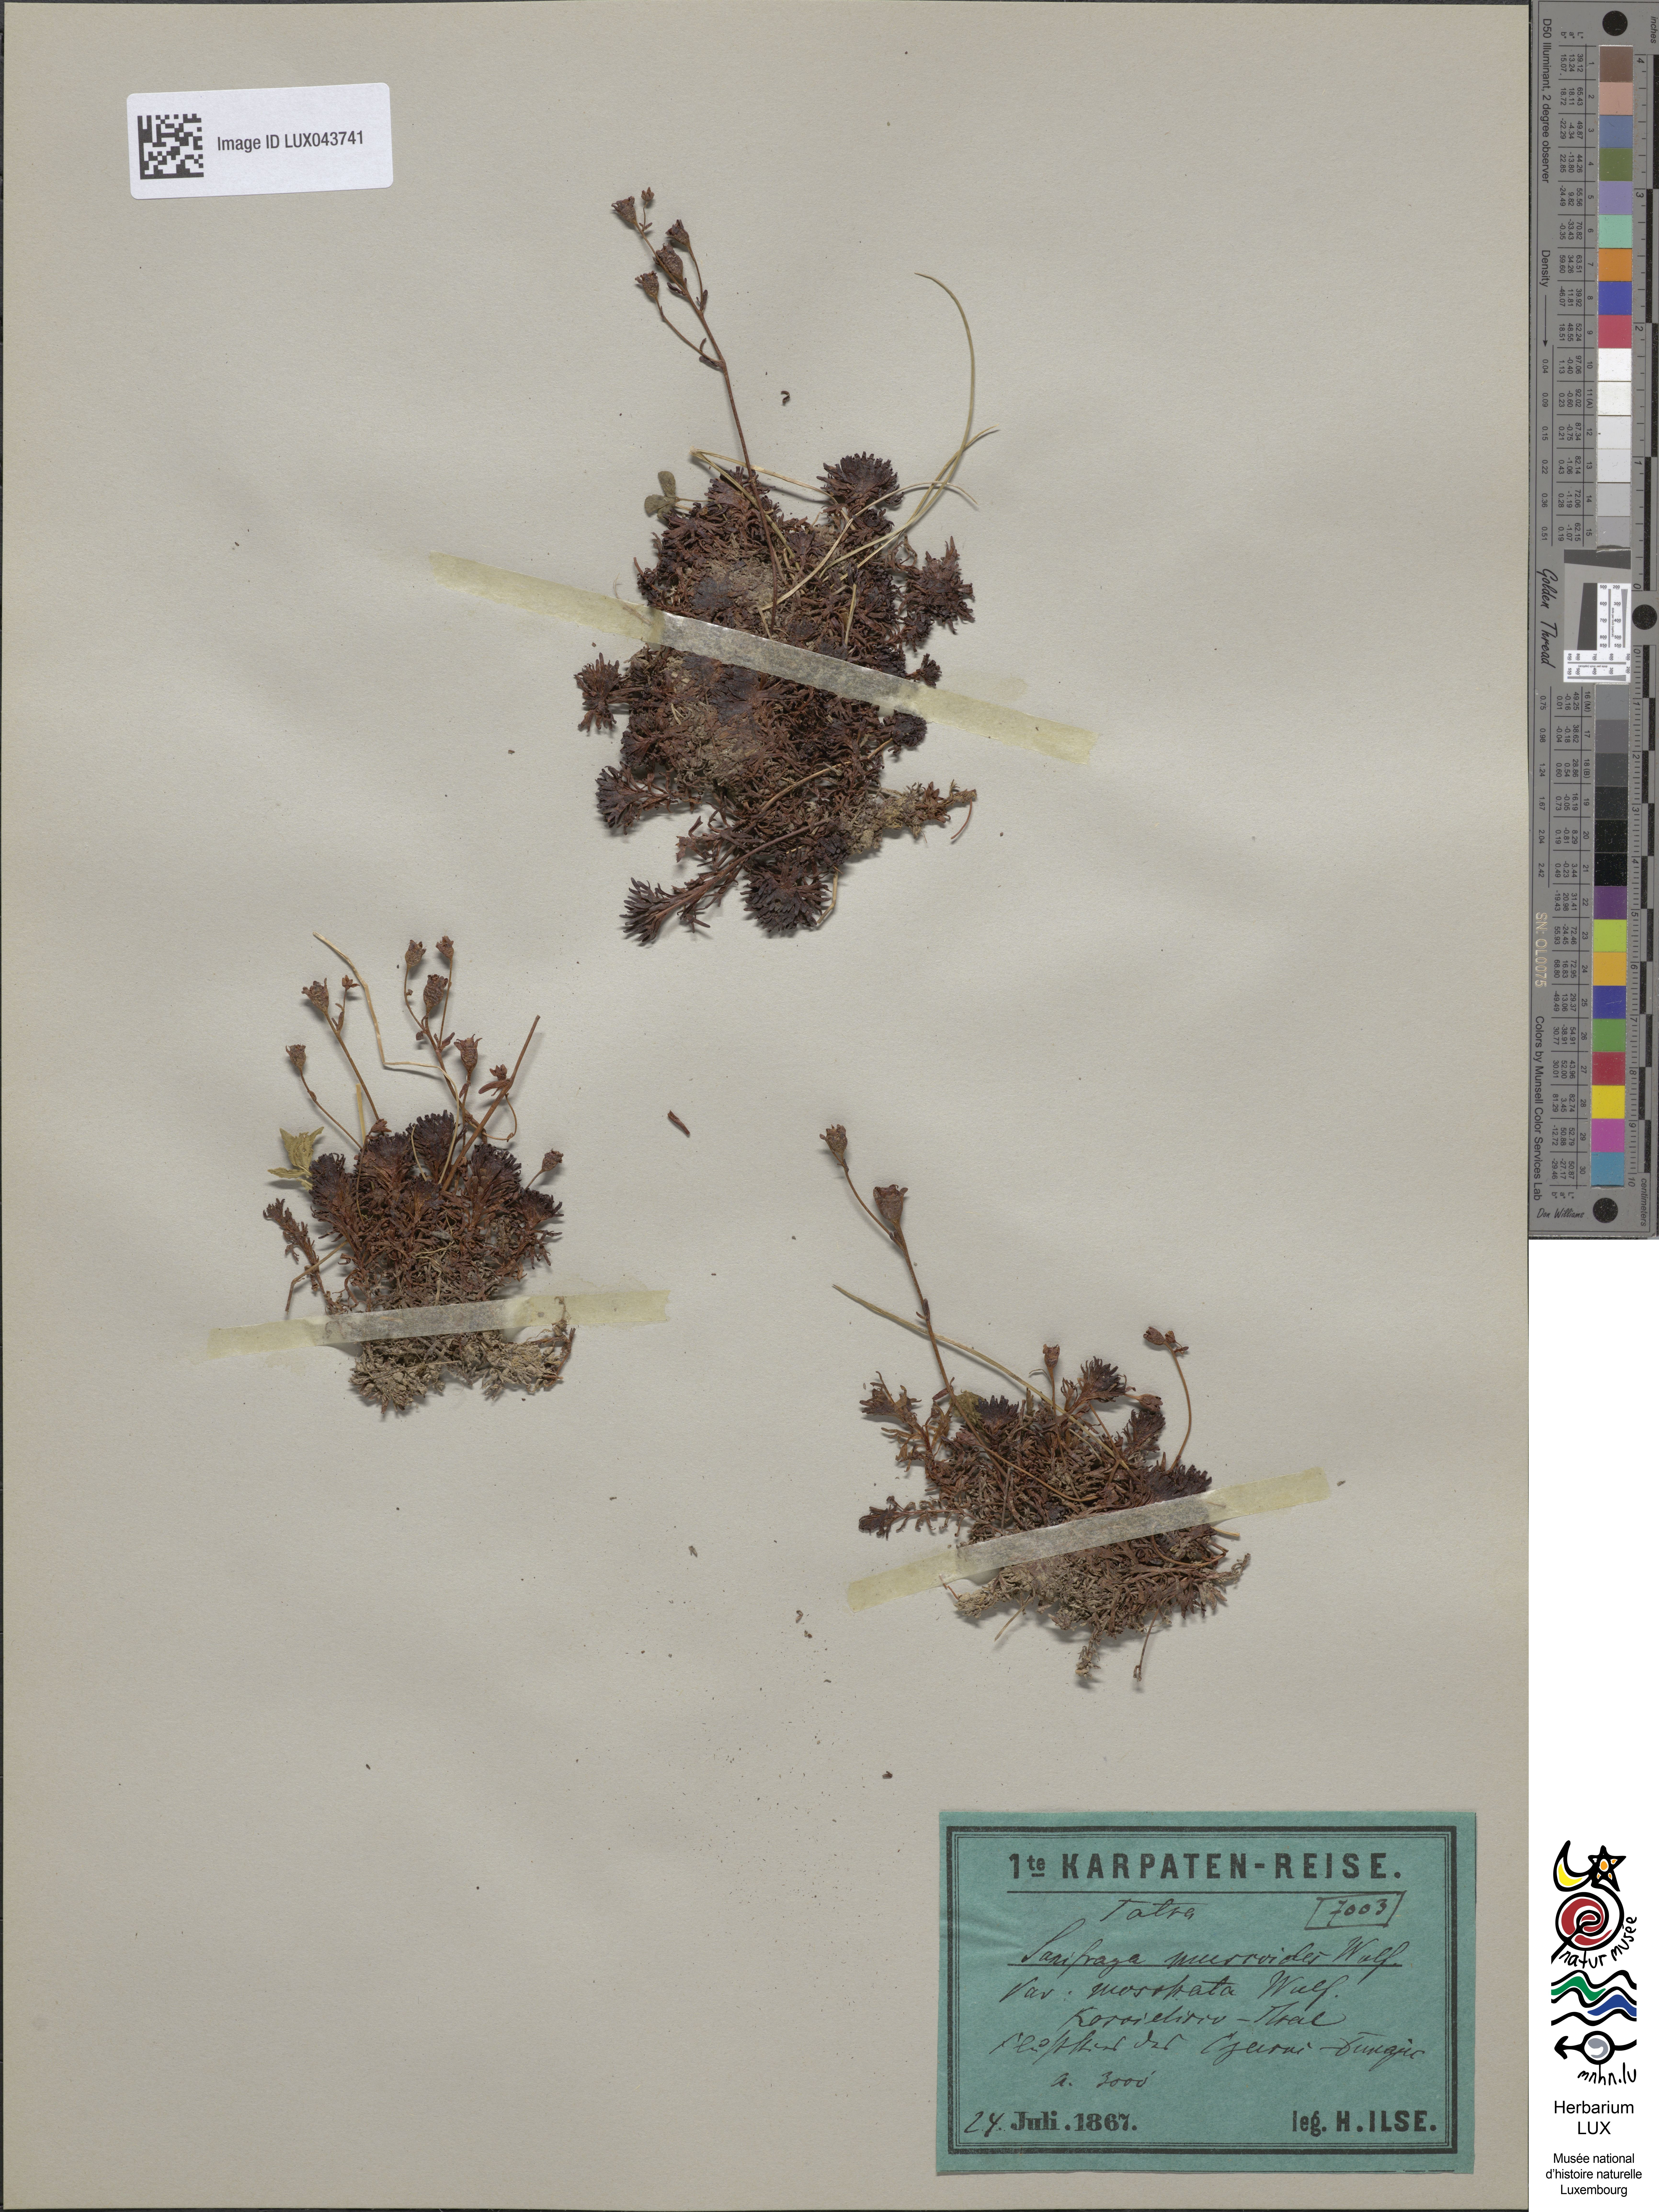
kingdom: Plantae
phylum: Tracheophyta
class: Magnoliopsida
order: Saxifragales
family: Saxifragaceae
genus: Saxifraga
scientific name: Saxifraga moschata
